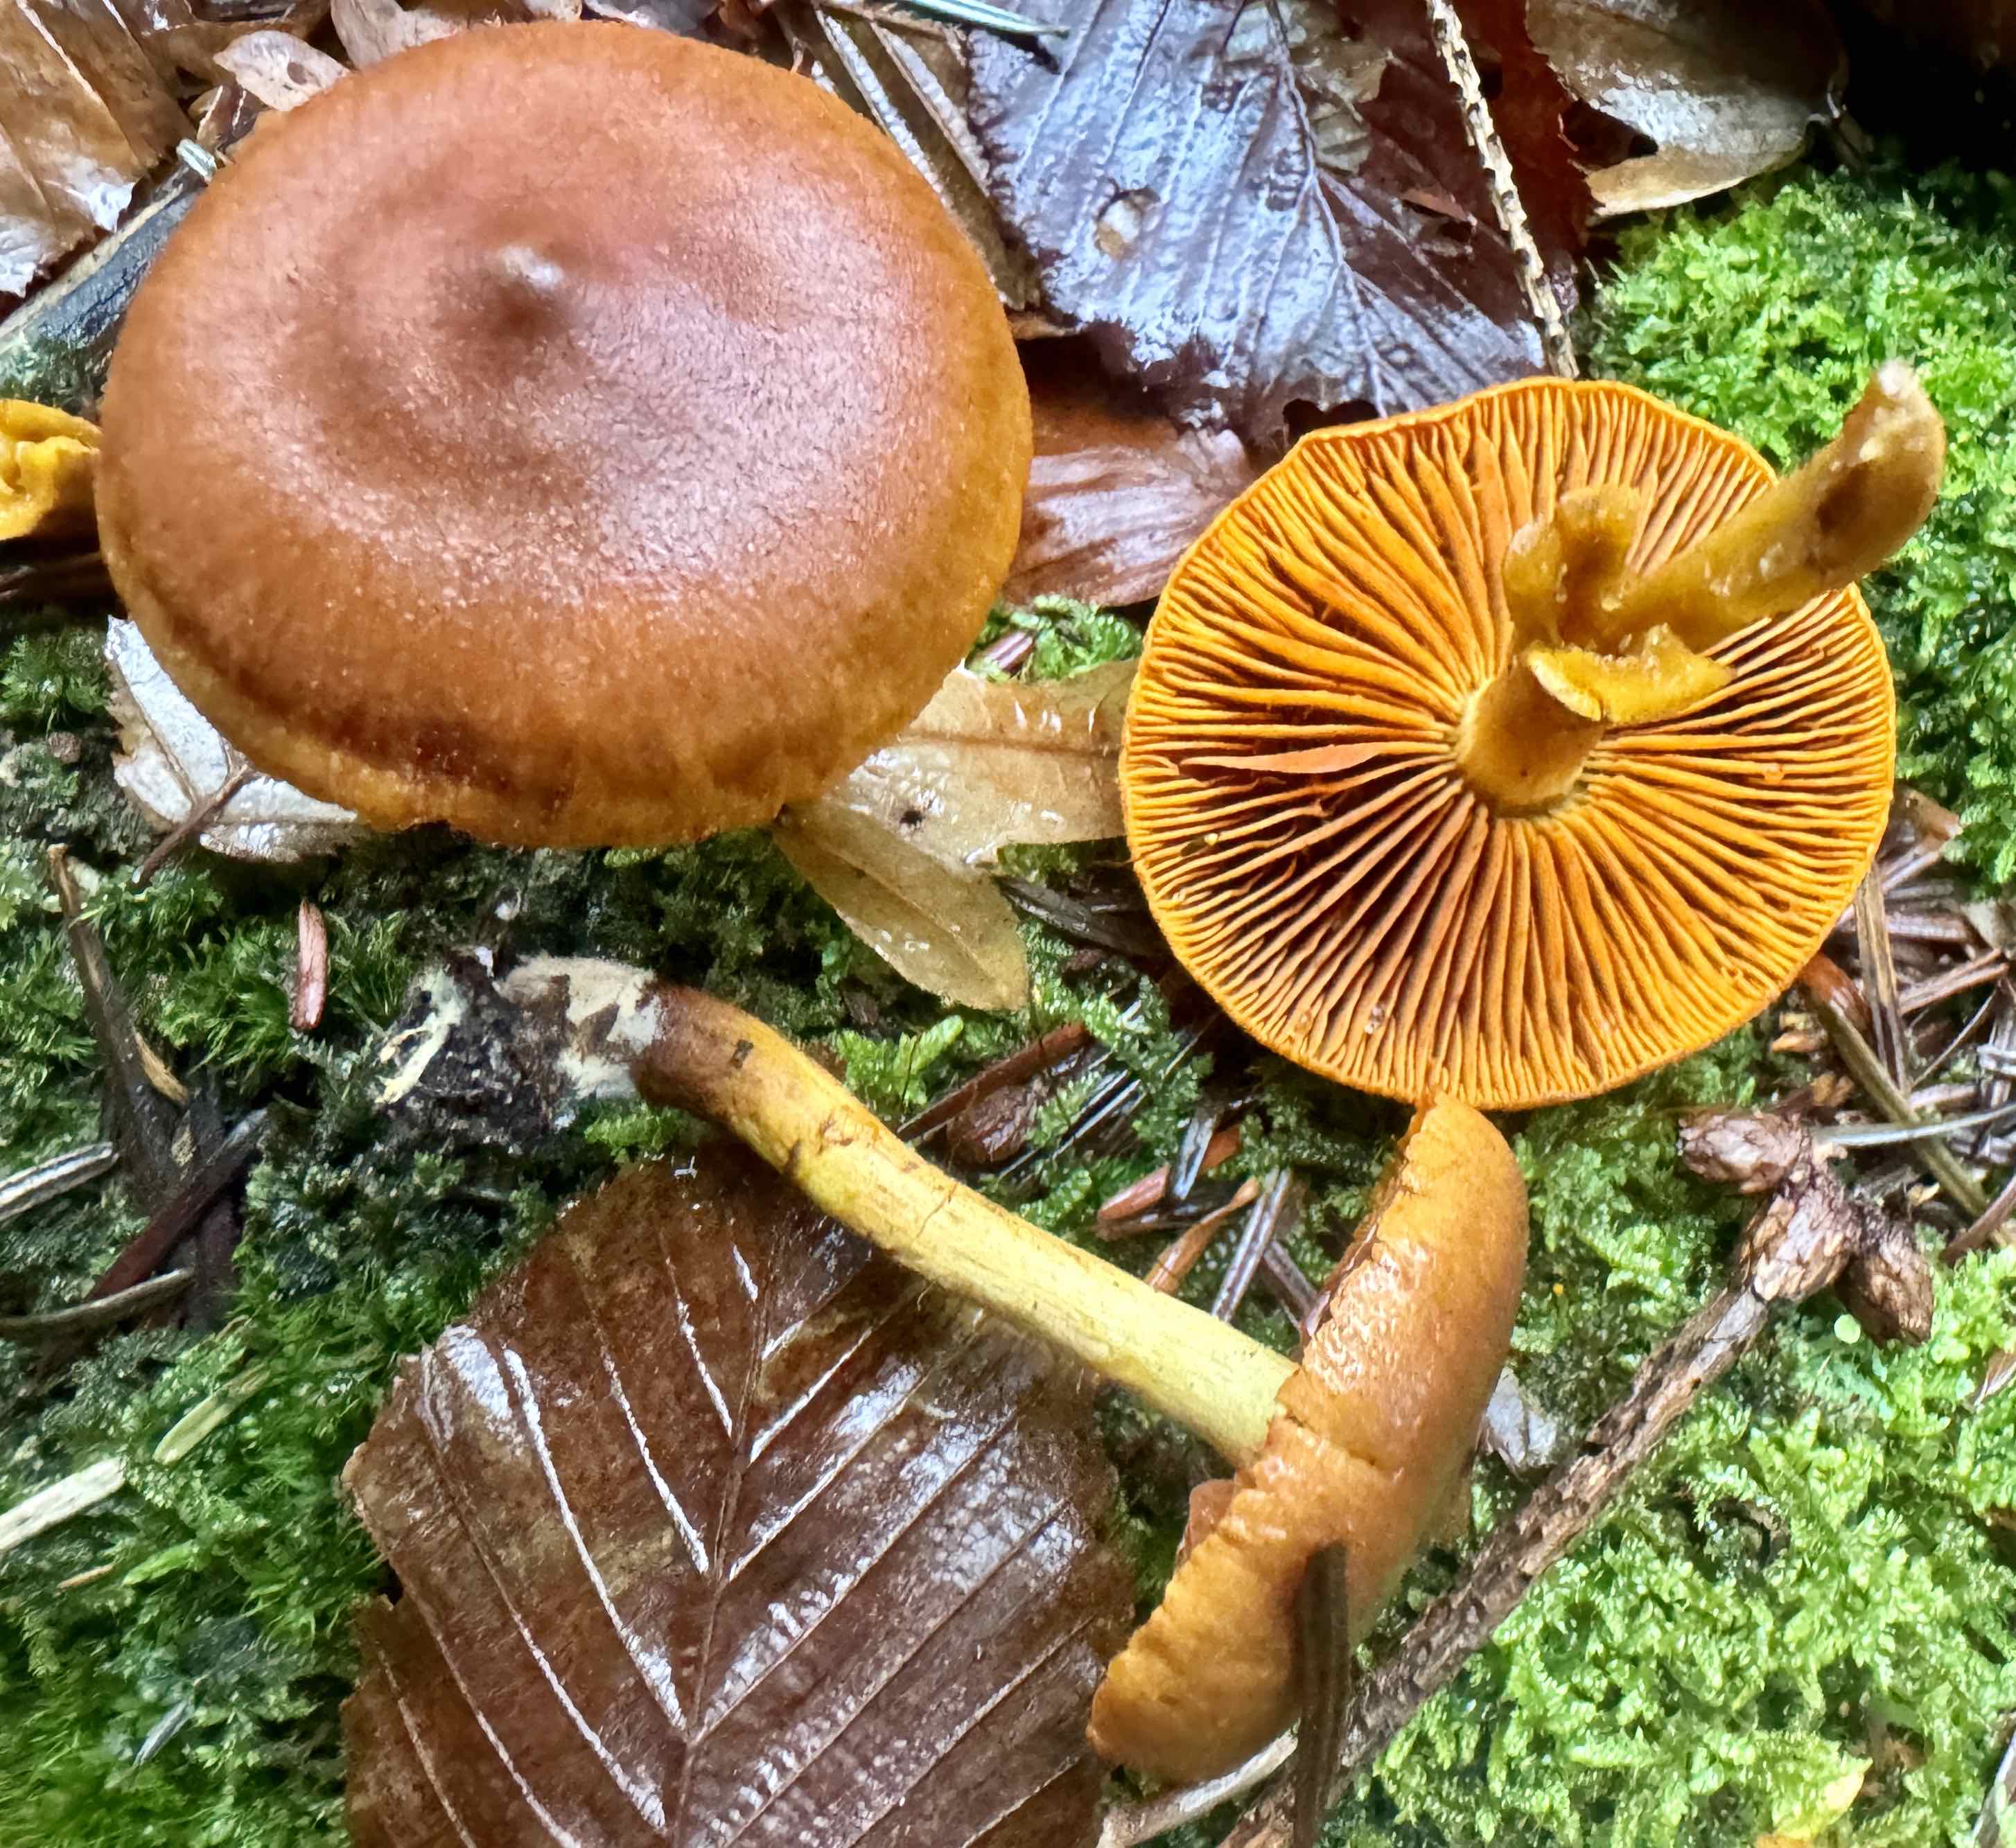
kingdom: Fungi
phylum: Basidiomycota
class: Agaricomycetes
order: Agaricales
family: Cortinariaceae
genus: Cortinarius
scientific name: Cortinarius malicorius
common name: grønkødet slørhat
